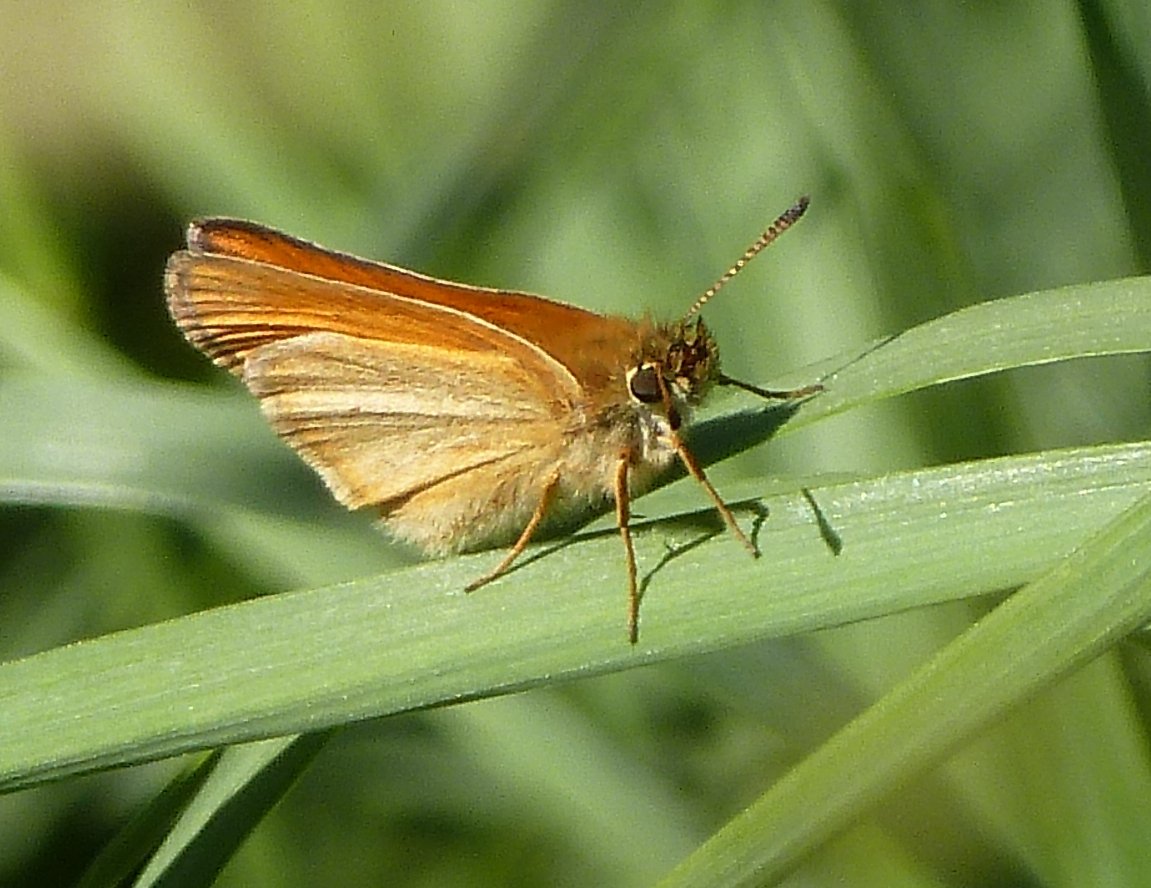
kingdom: Animalia
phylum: Arthropoda
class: Insecta
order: Lepidoptera
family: Hesperiidae
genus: Thymelicus
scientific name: Thymelicus lineola
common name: European Skipper
